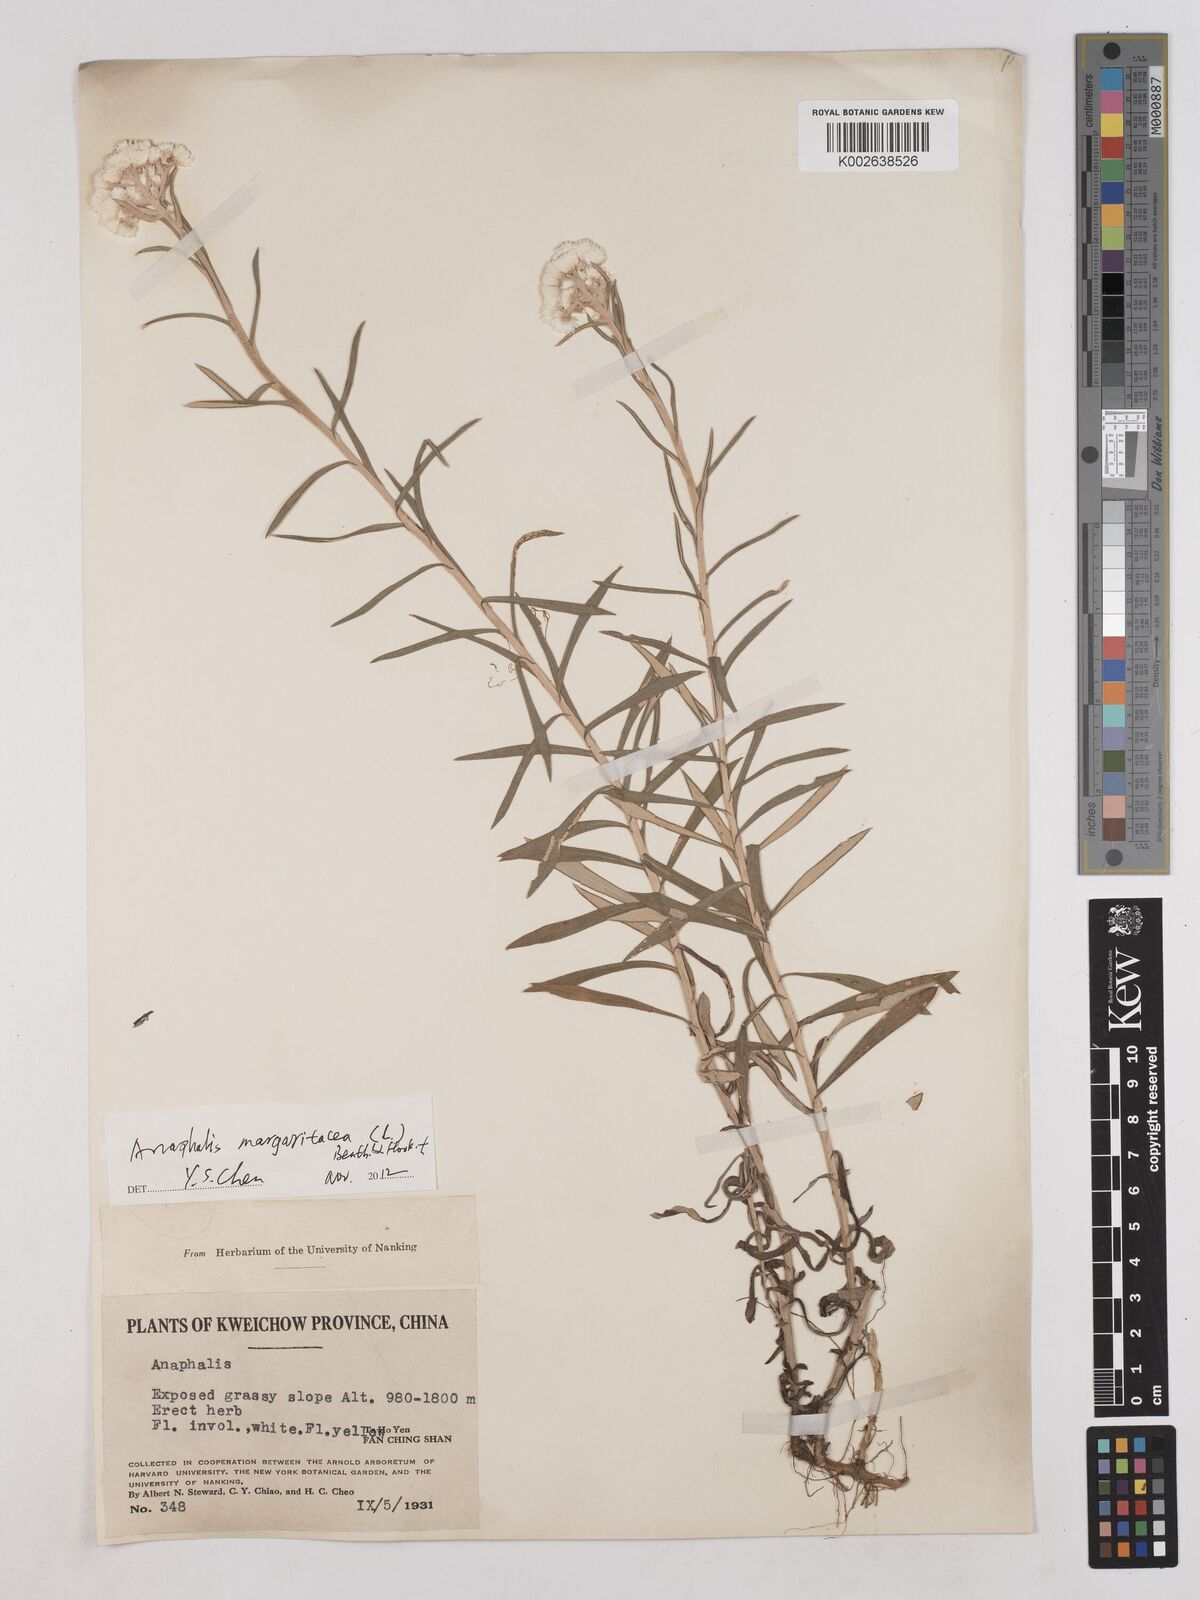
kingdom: Plantae
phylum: Tracheophyta
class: Magnoliopsida
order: Asterales
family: Asteraceae
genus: Anaphalis
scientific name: Anaphalis
